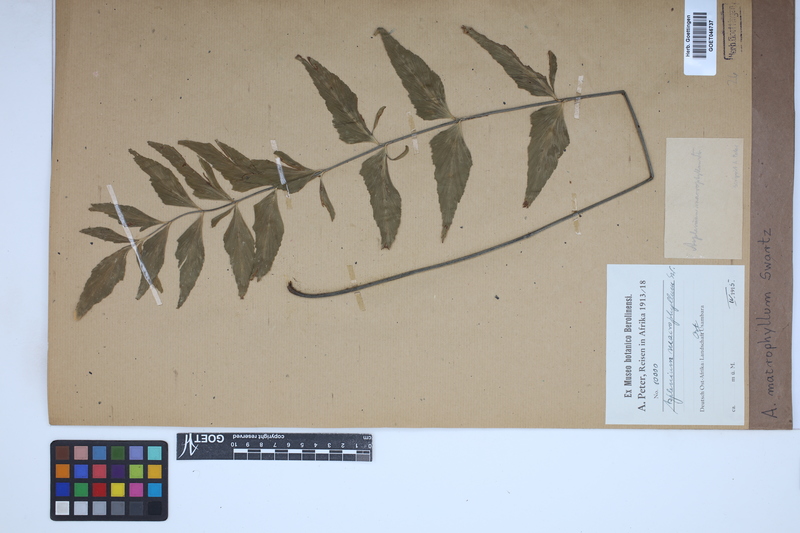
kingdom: Plantae
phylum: Tracheophyta
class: Polypodiopsida
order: Polypodiales
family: Aspleniaceae
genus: Asplenium
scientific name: Asplenium macrophyllum
